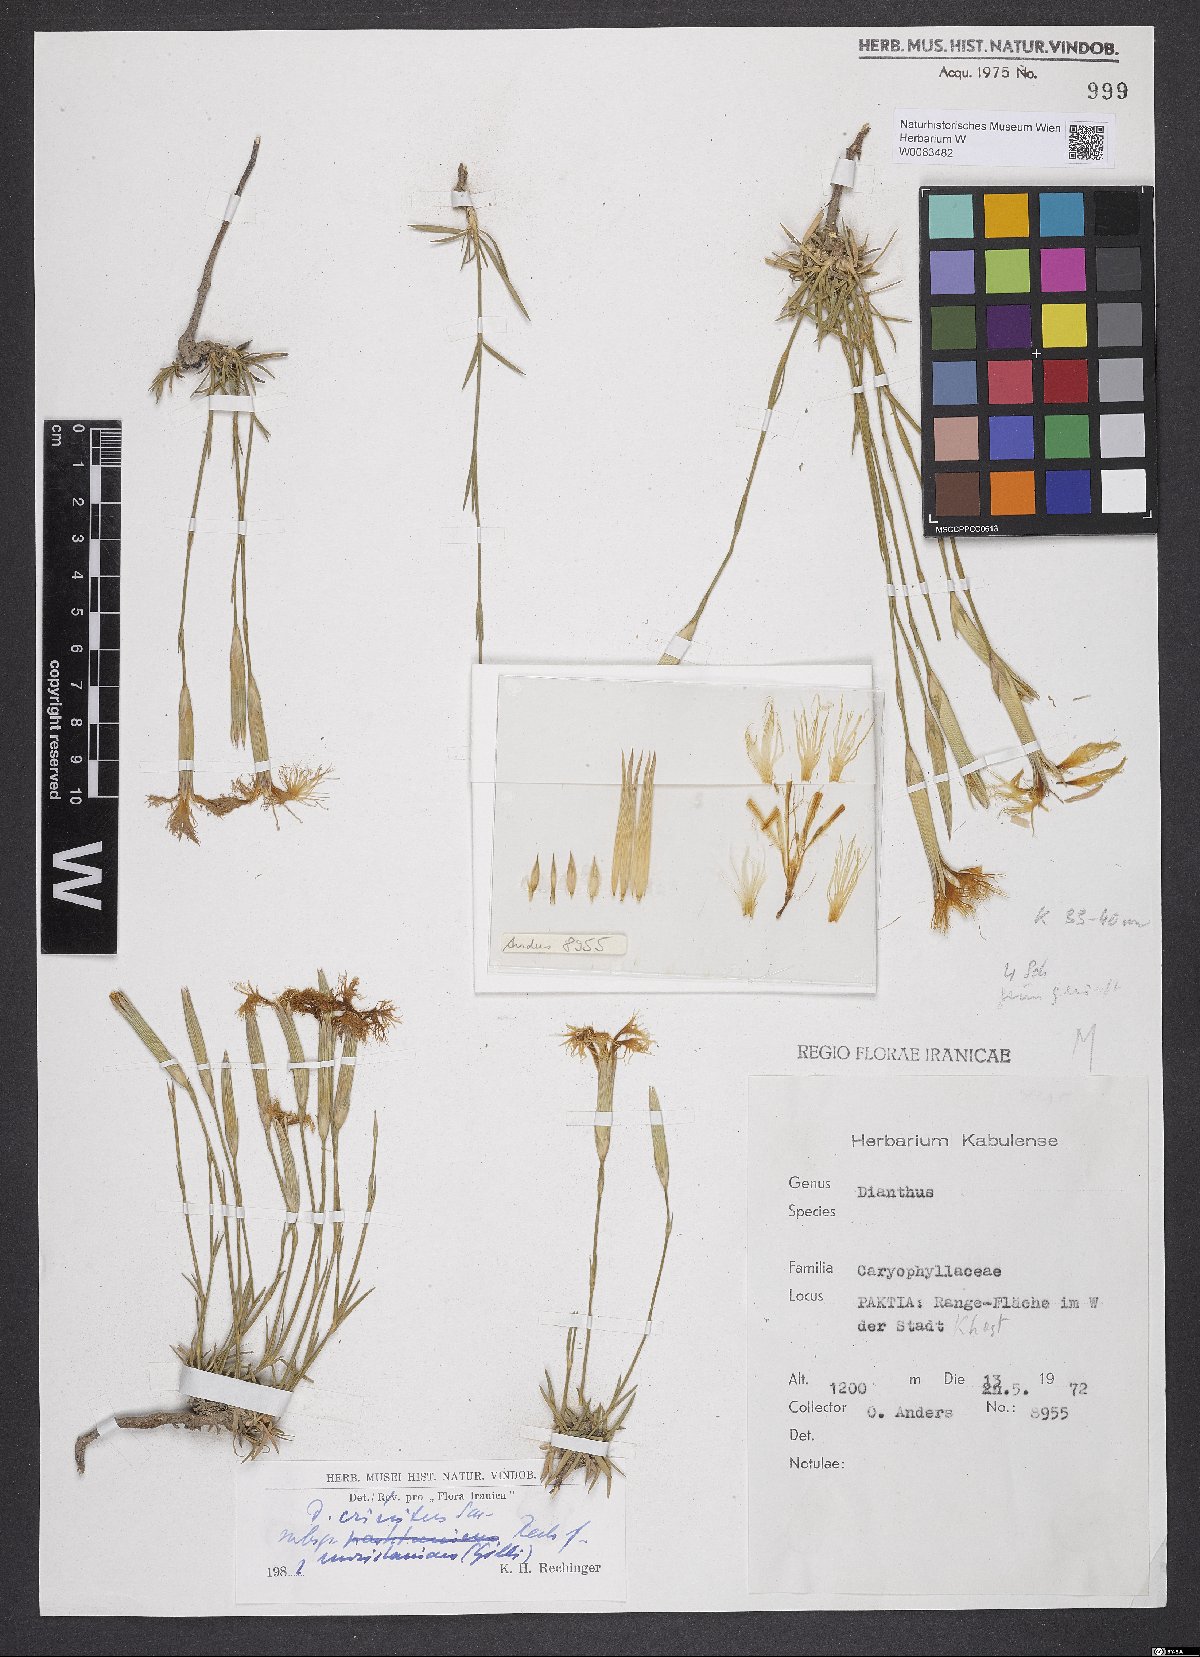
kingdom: Plantae
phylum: Tracheophyta
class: Magnoliopsida
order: Caryophyllales
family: Caryophyllaceae
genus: Dianthus
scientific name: Dianthus crinitus
